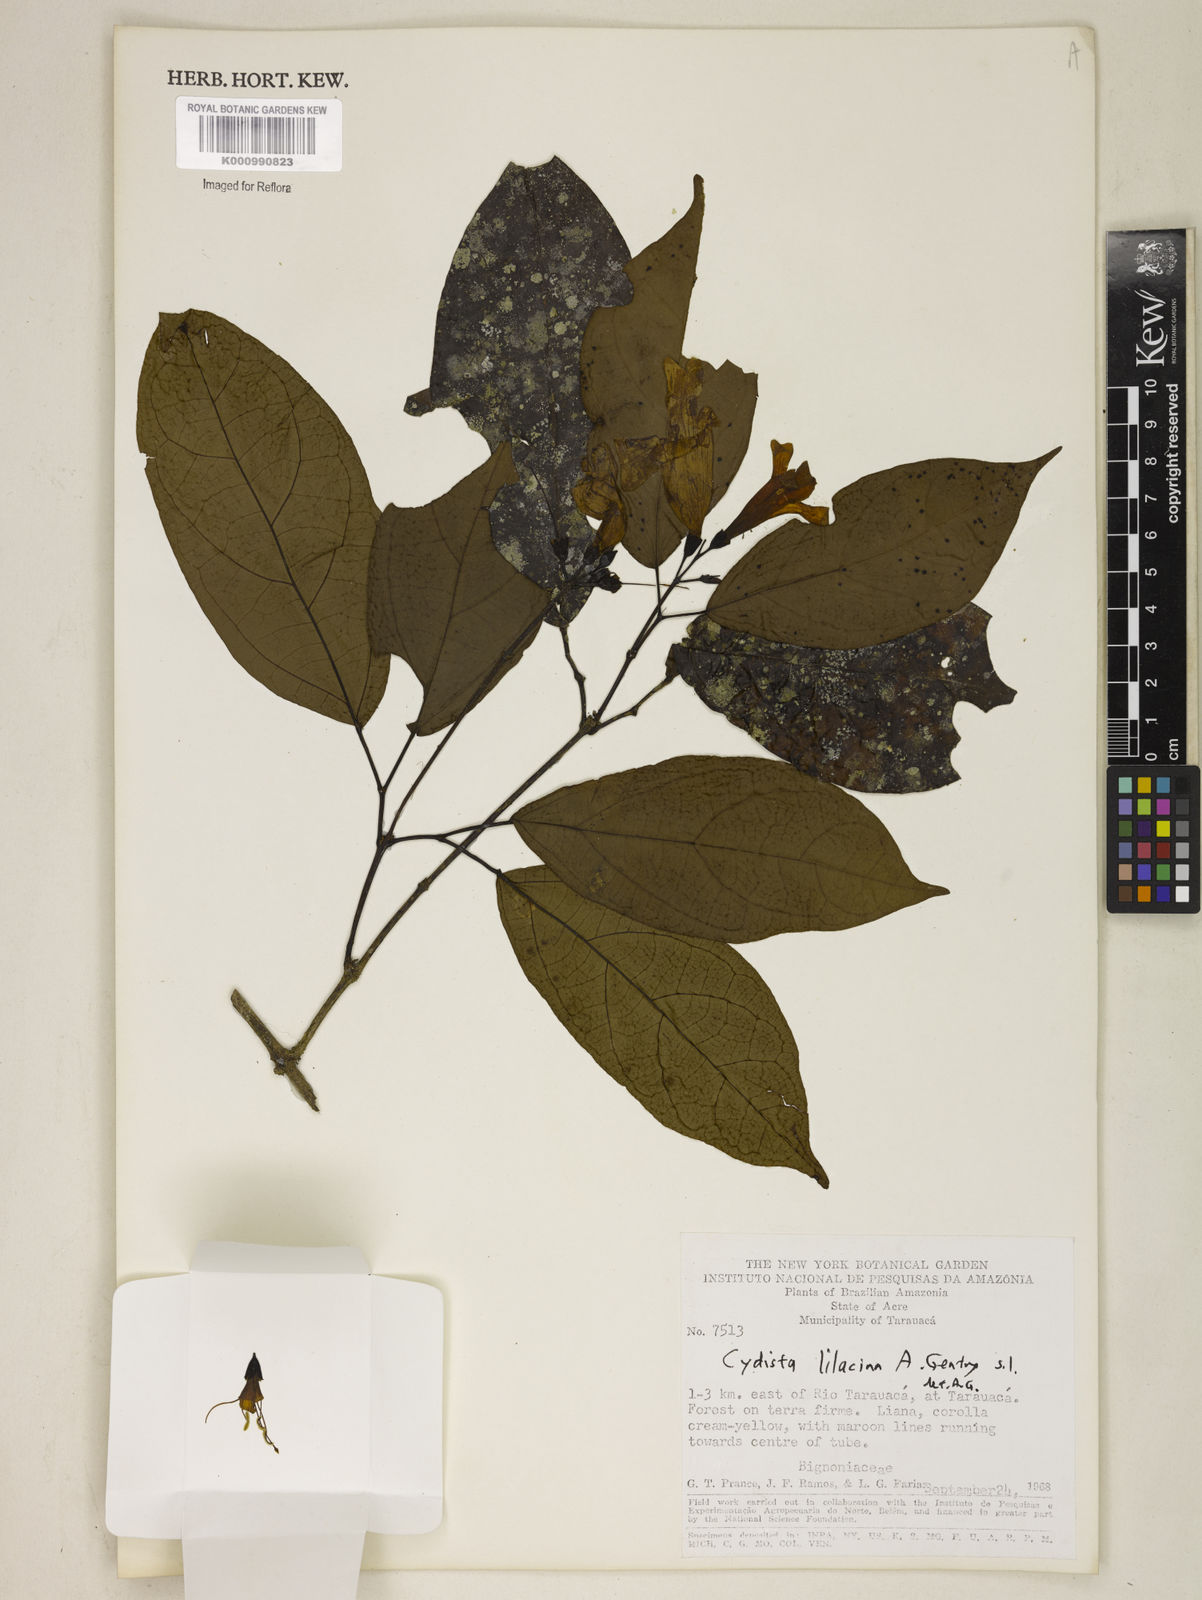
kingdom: Plantae
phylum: Tracheophyta
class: Magnoliopsida
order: Lamiales
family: Bignoniaceae
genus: Bignonia
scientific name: Bignonia lilacina
